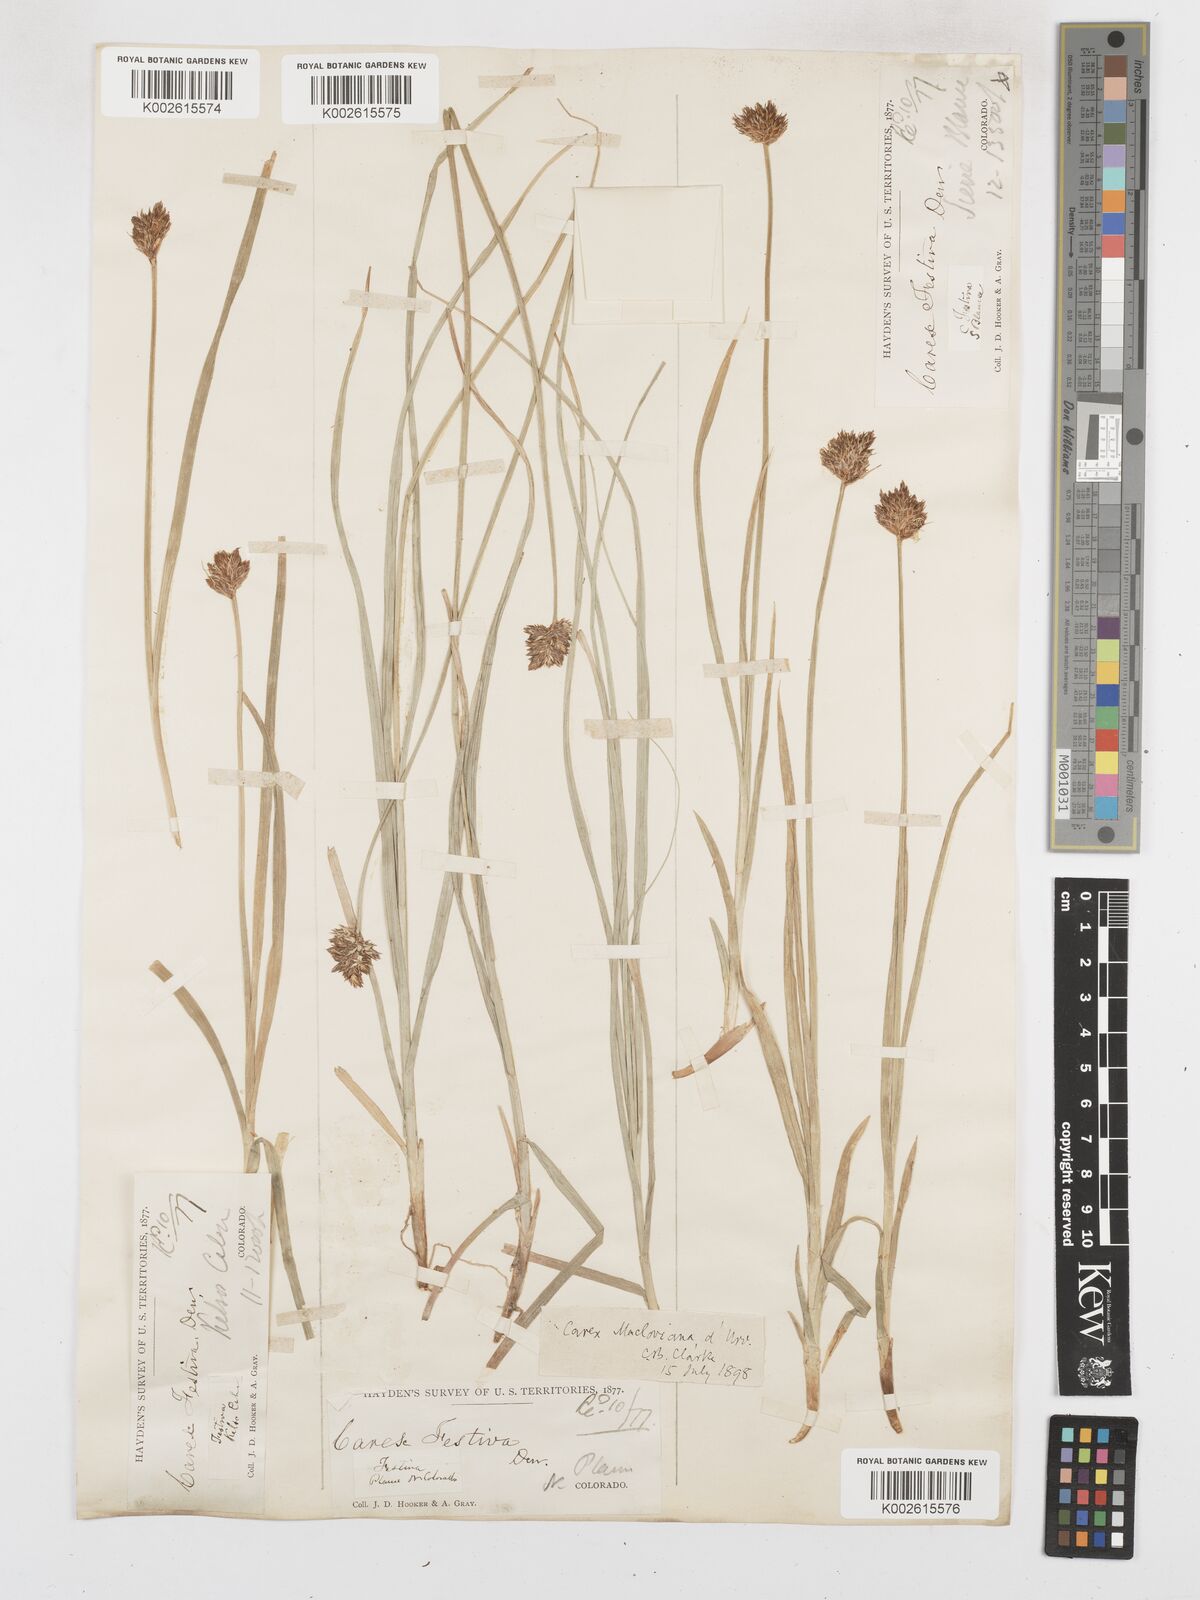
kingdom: Plantae
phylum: Tracheophyta
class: Liliopsida
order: Poales
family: Cyperaceae
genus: Carex
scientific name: Carex macloviana
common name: Falkland island sedge
